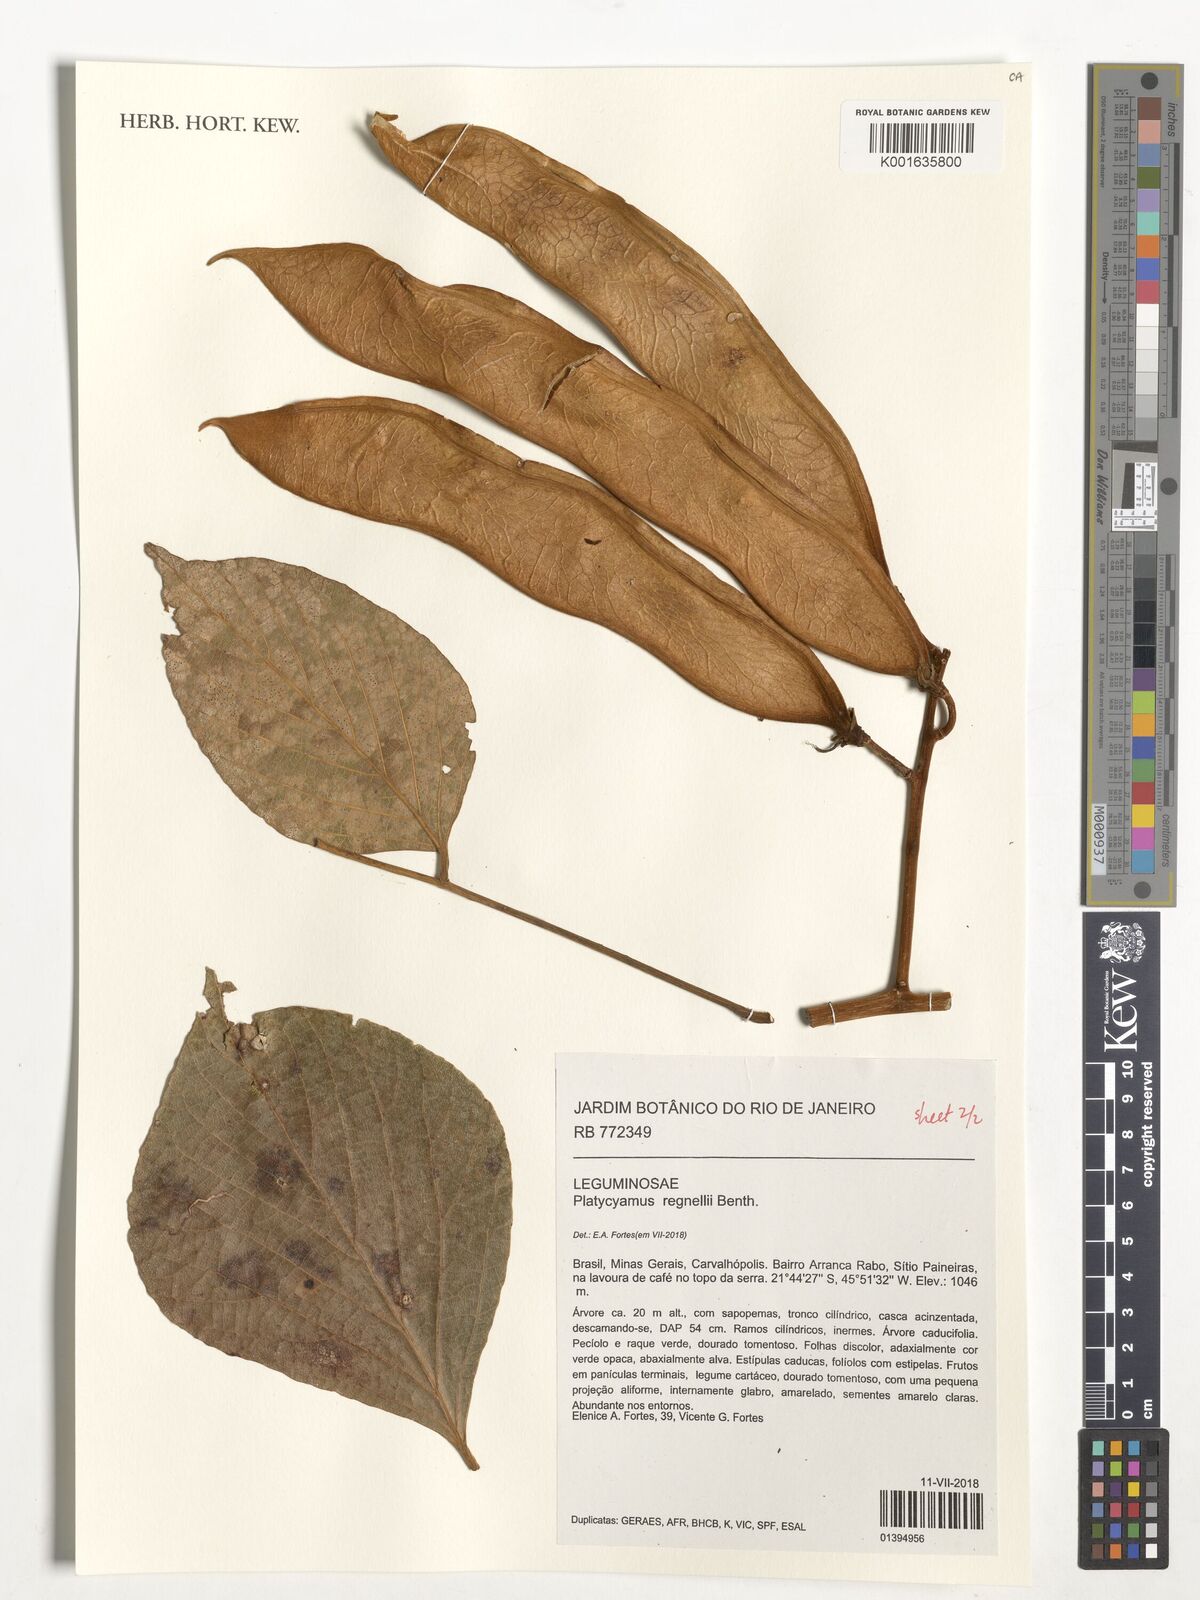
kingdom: Plantae
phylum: Tracheophyta
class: Magnoliopsida
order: Fabales
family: Fabaceae
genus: Platycyamus
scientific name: Platycyamus regnellii
